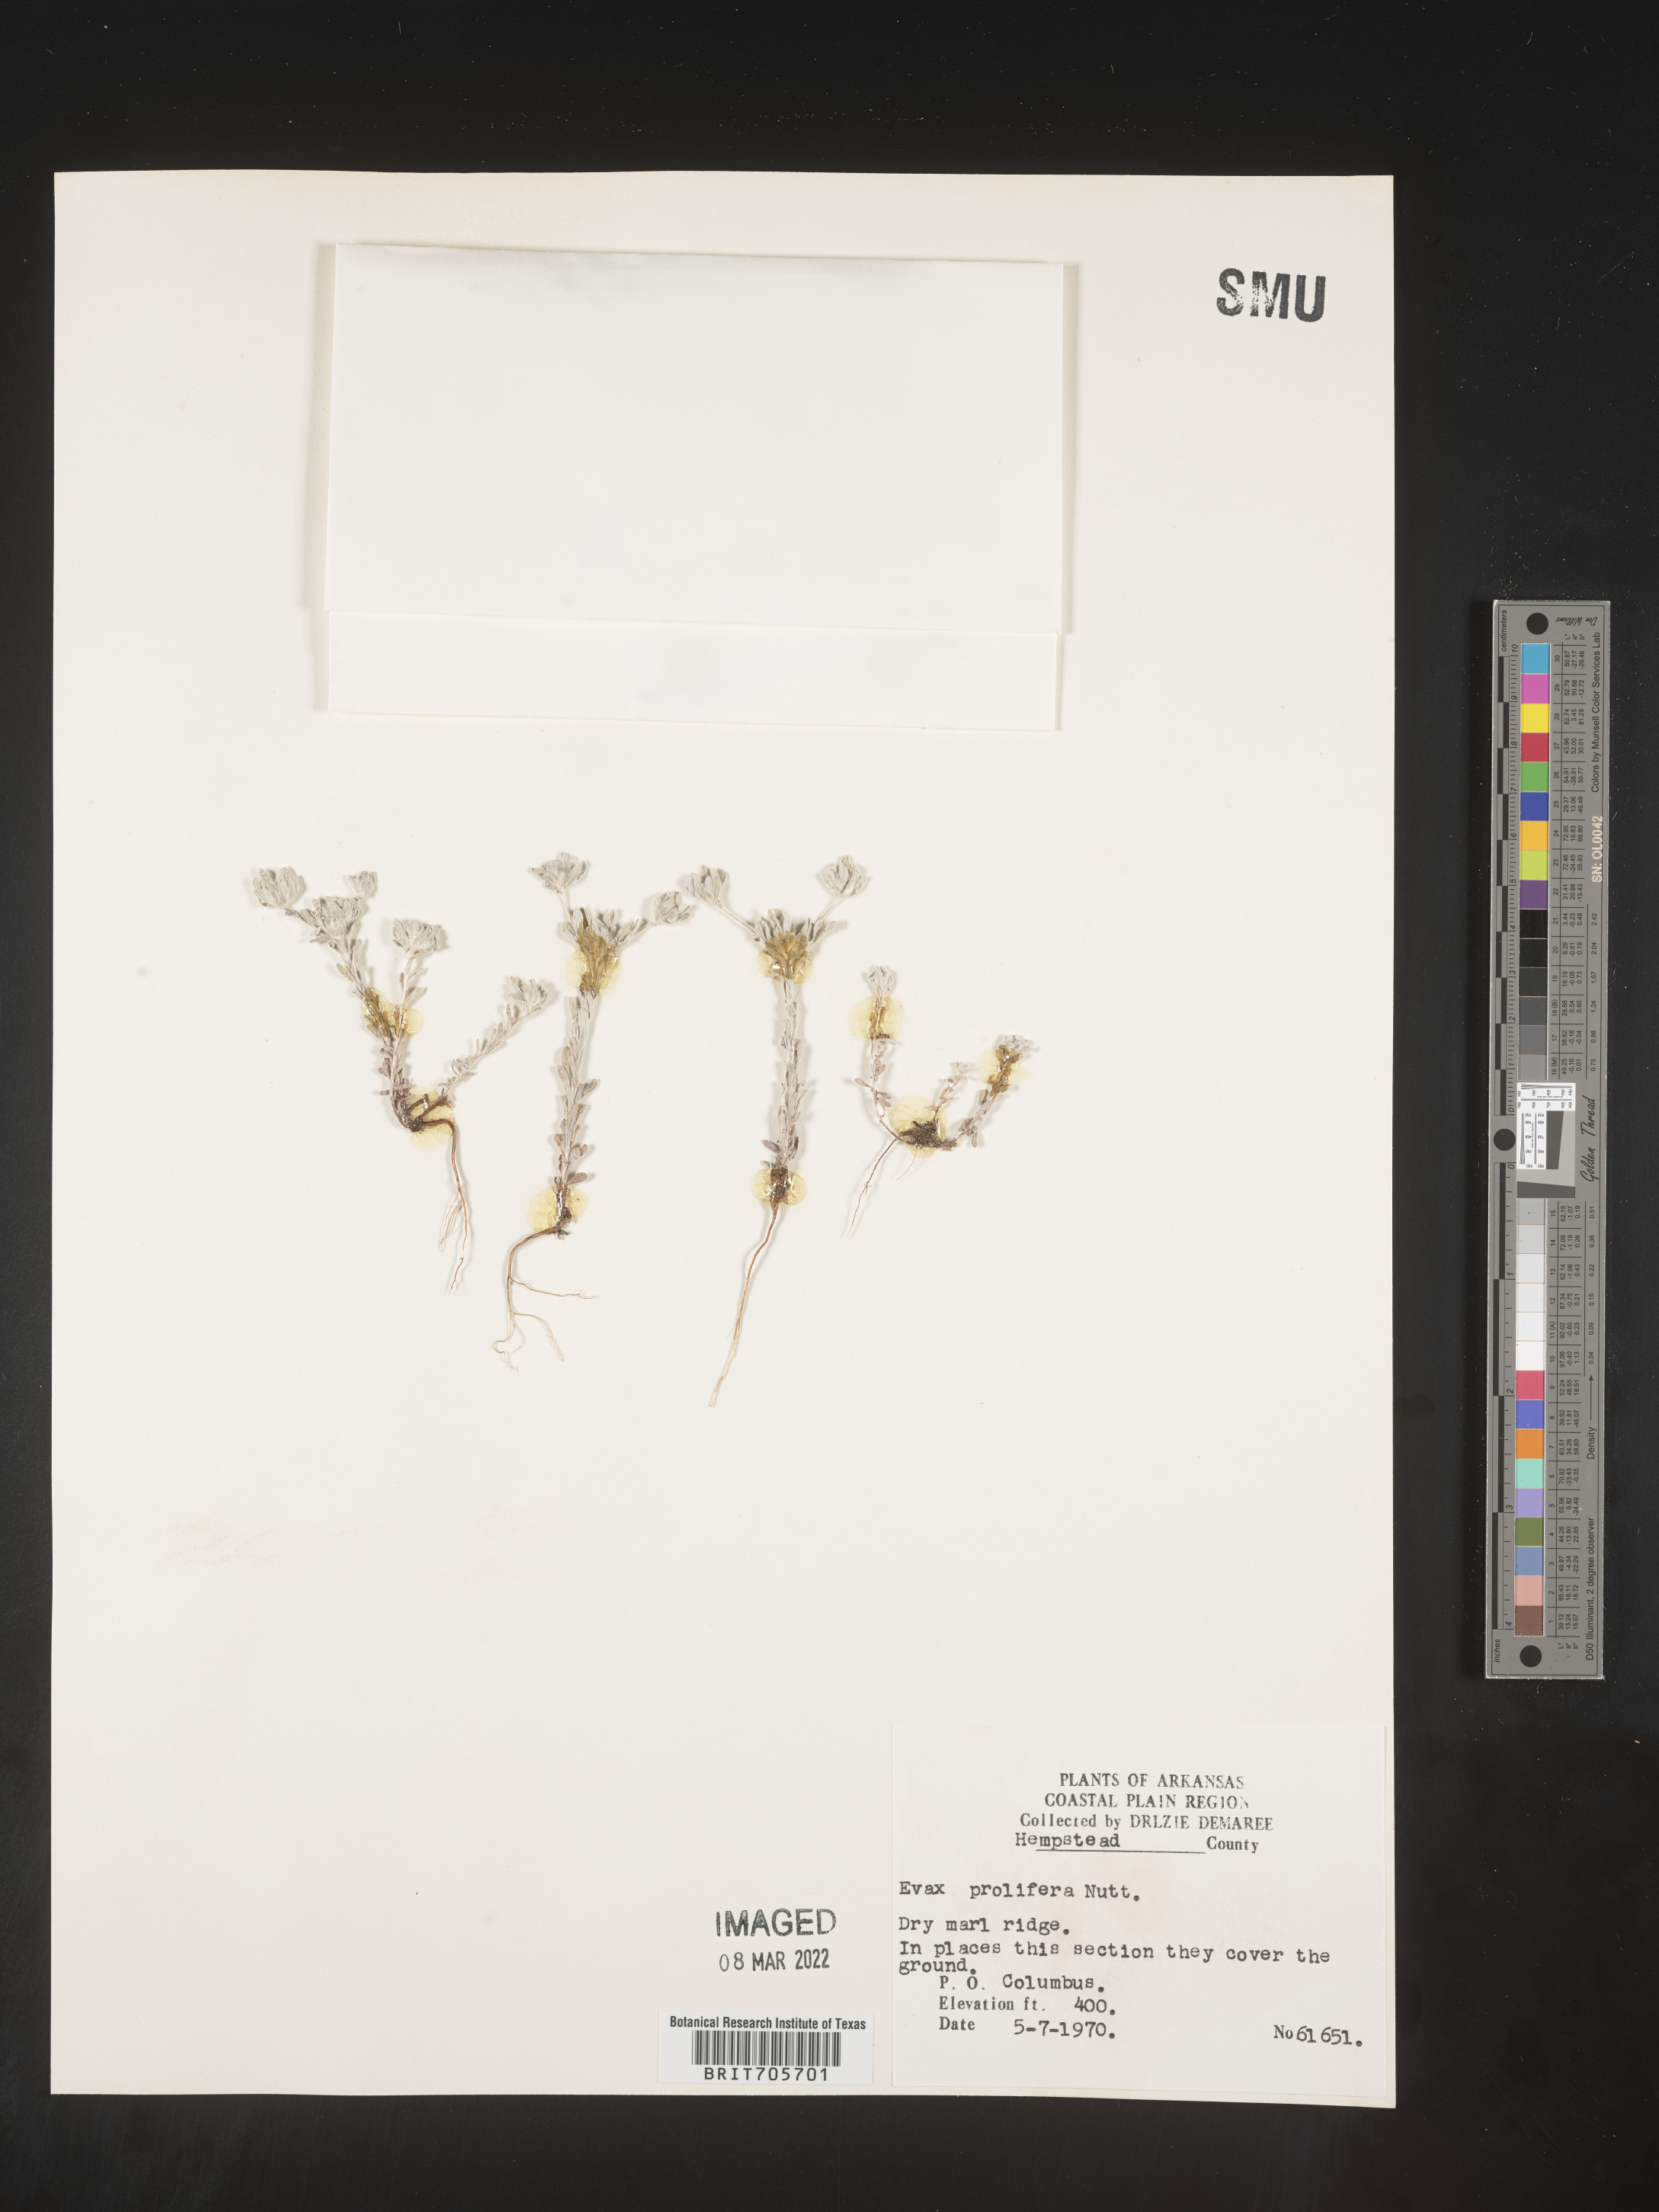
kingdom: Plantae
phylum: Tracheophyta
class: Magnoliopsida
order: Asterales
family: Asteraceae
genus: Diaperia
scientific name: Diaperia prolifera
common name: Big-head rabbit-tobacco
